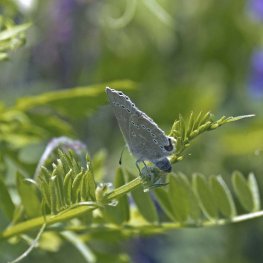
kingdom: Animalia
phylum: Arthropoda
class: Insecta
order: Lepidoptera
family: Lycaenidae
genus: Glaucopsyche
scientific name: Glaucopsyche lygdamus
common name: Silvery Blue
